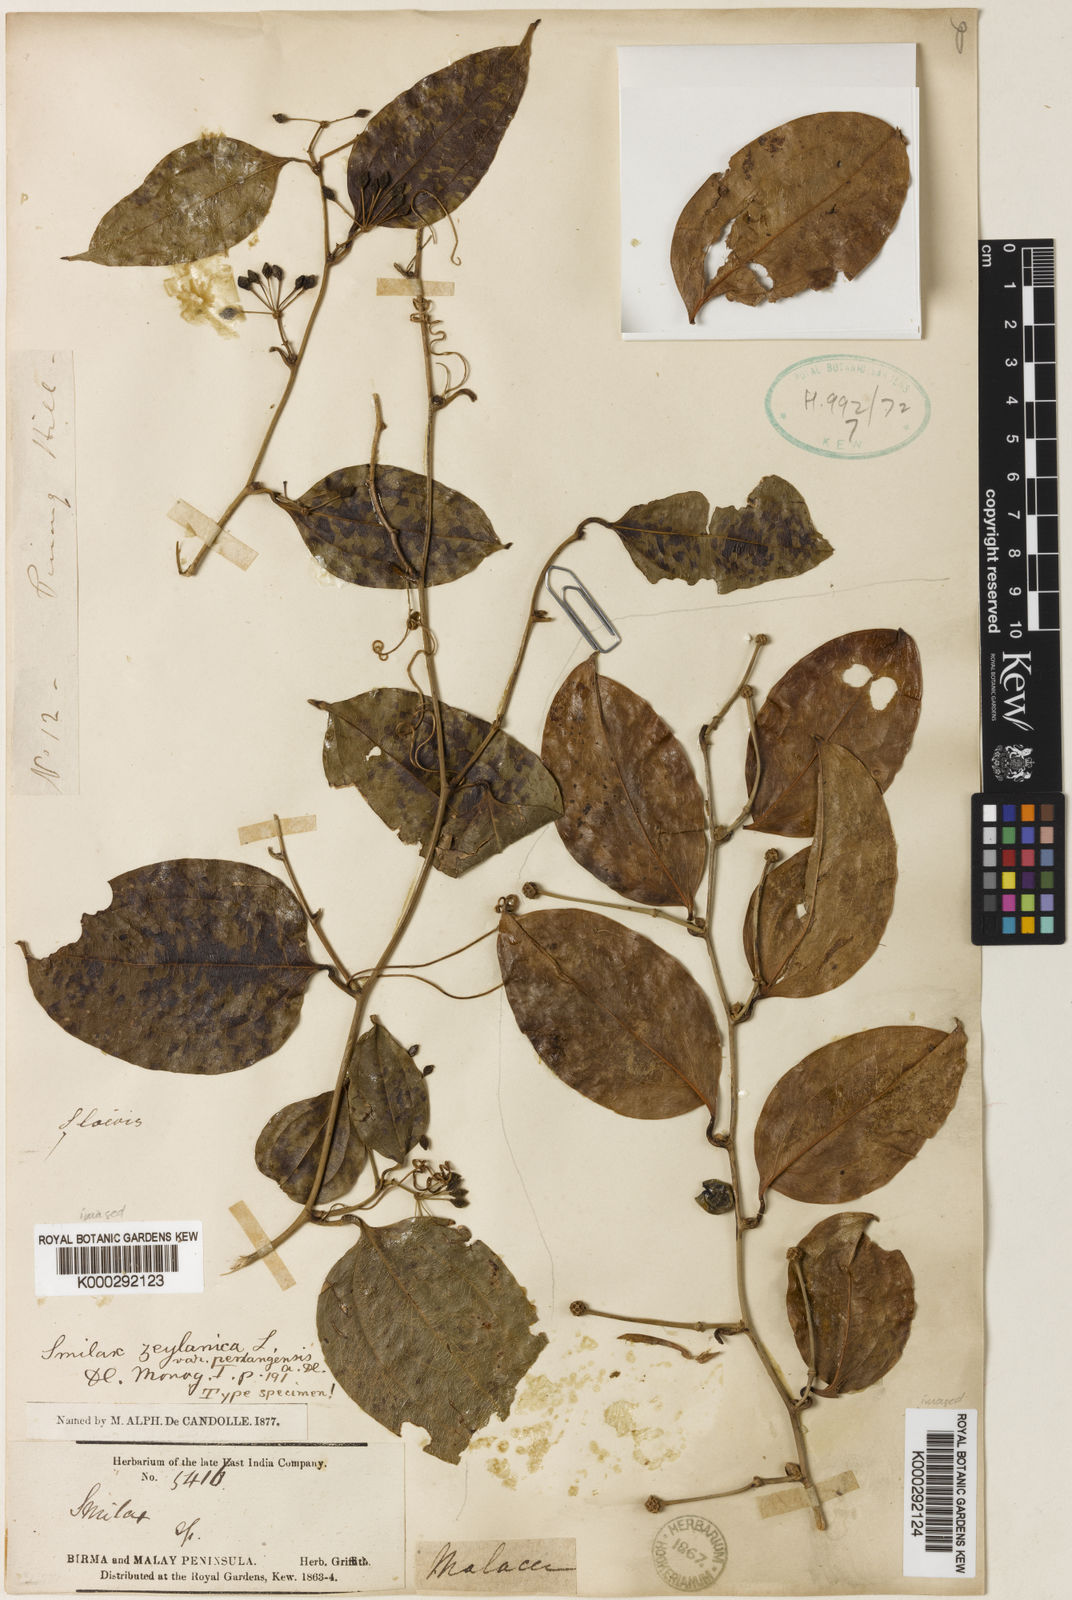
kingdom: Plantae
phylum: Tracheophyta
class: Liliopsida
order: Liliales
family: Smilacaceae
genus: Smilax
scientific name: Smilax luzonensis
